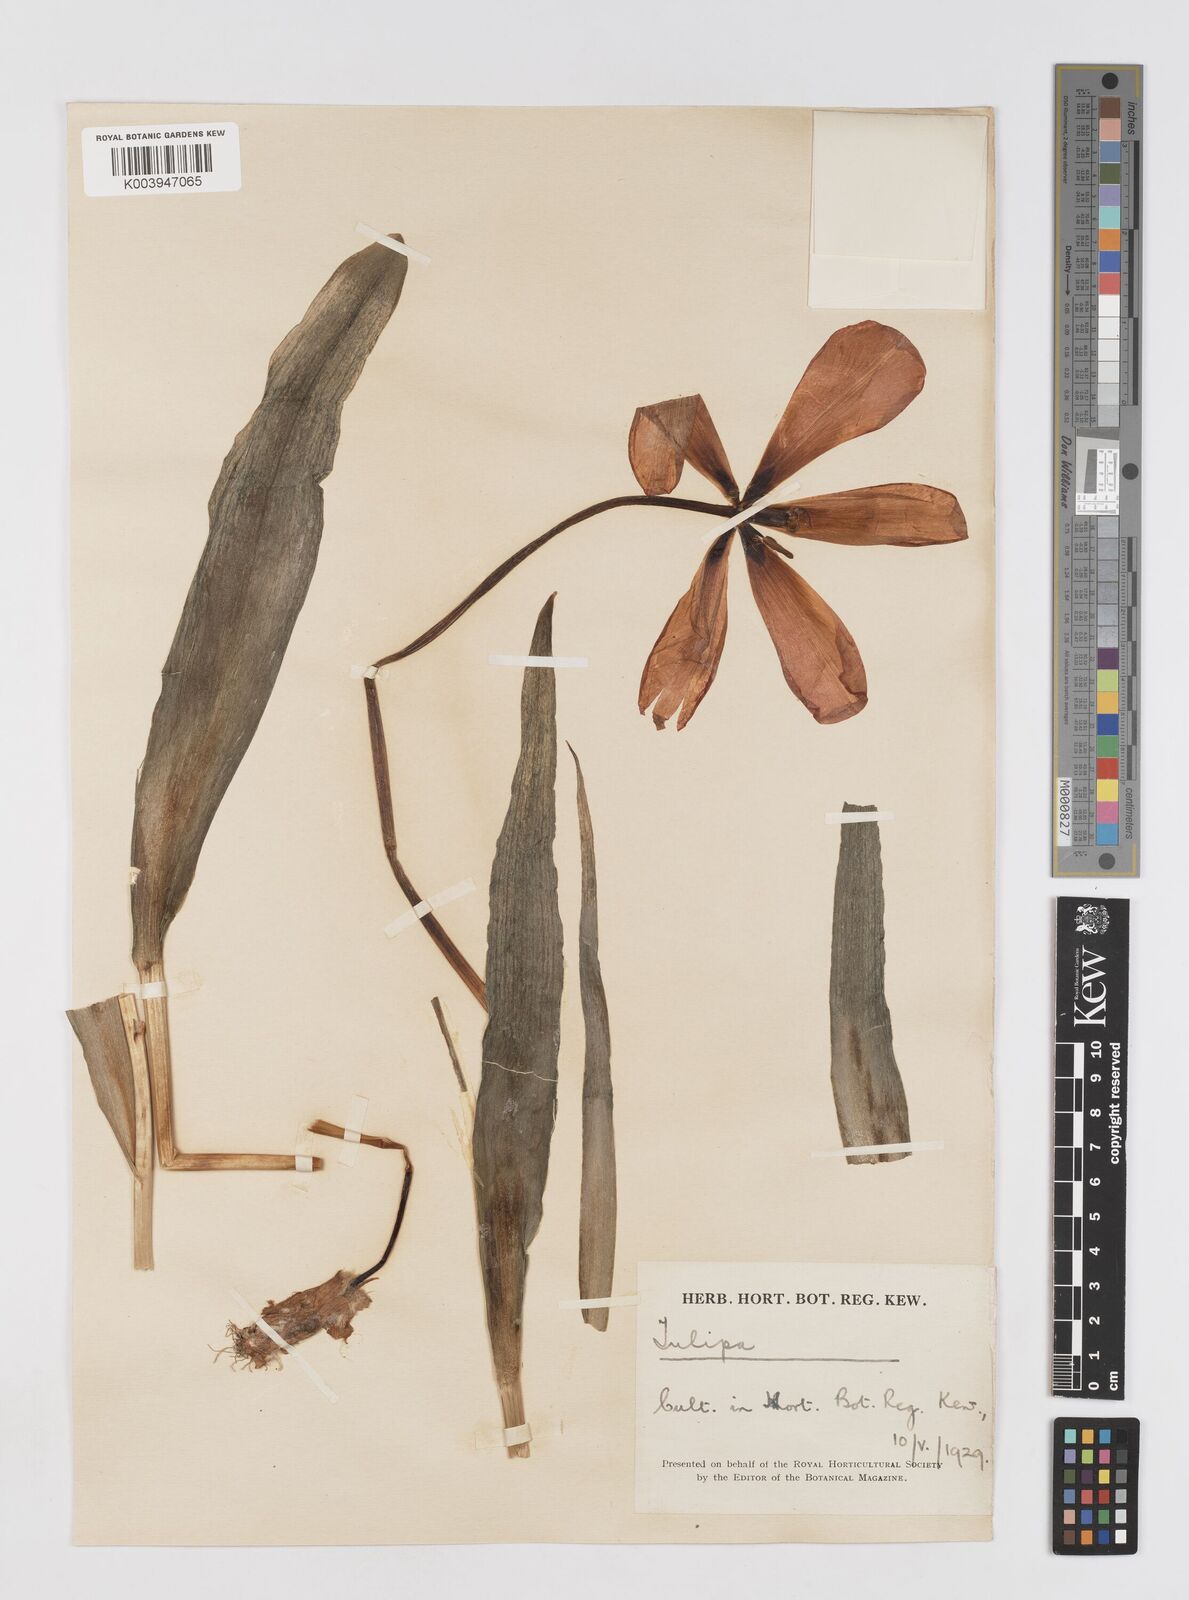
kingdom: Plantae
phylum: Tracheophyta
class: Liliopsida
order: Liliales
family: Liliaceae
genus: Tulipa
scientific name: Tulipa lanata
